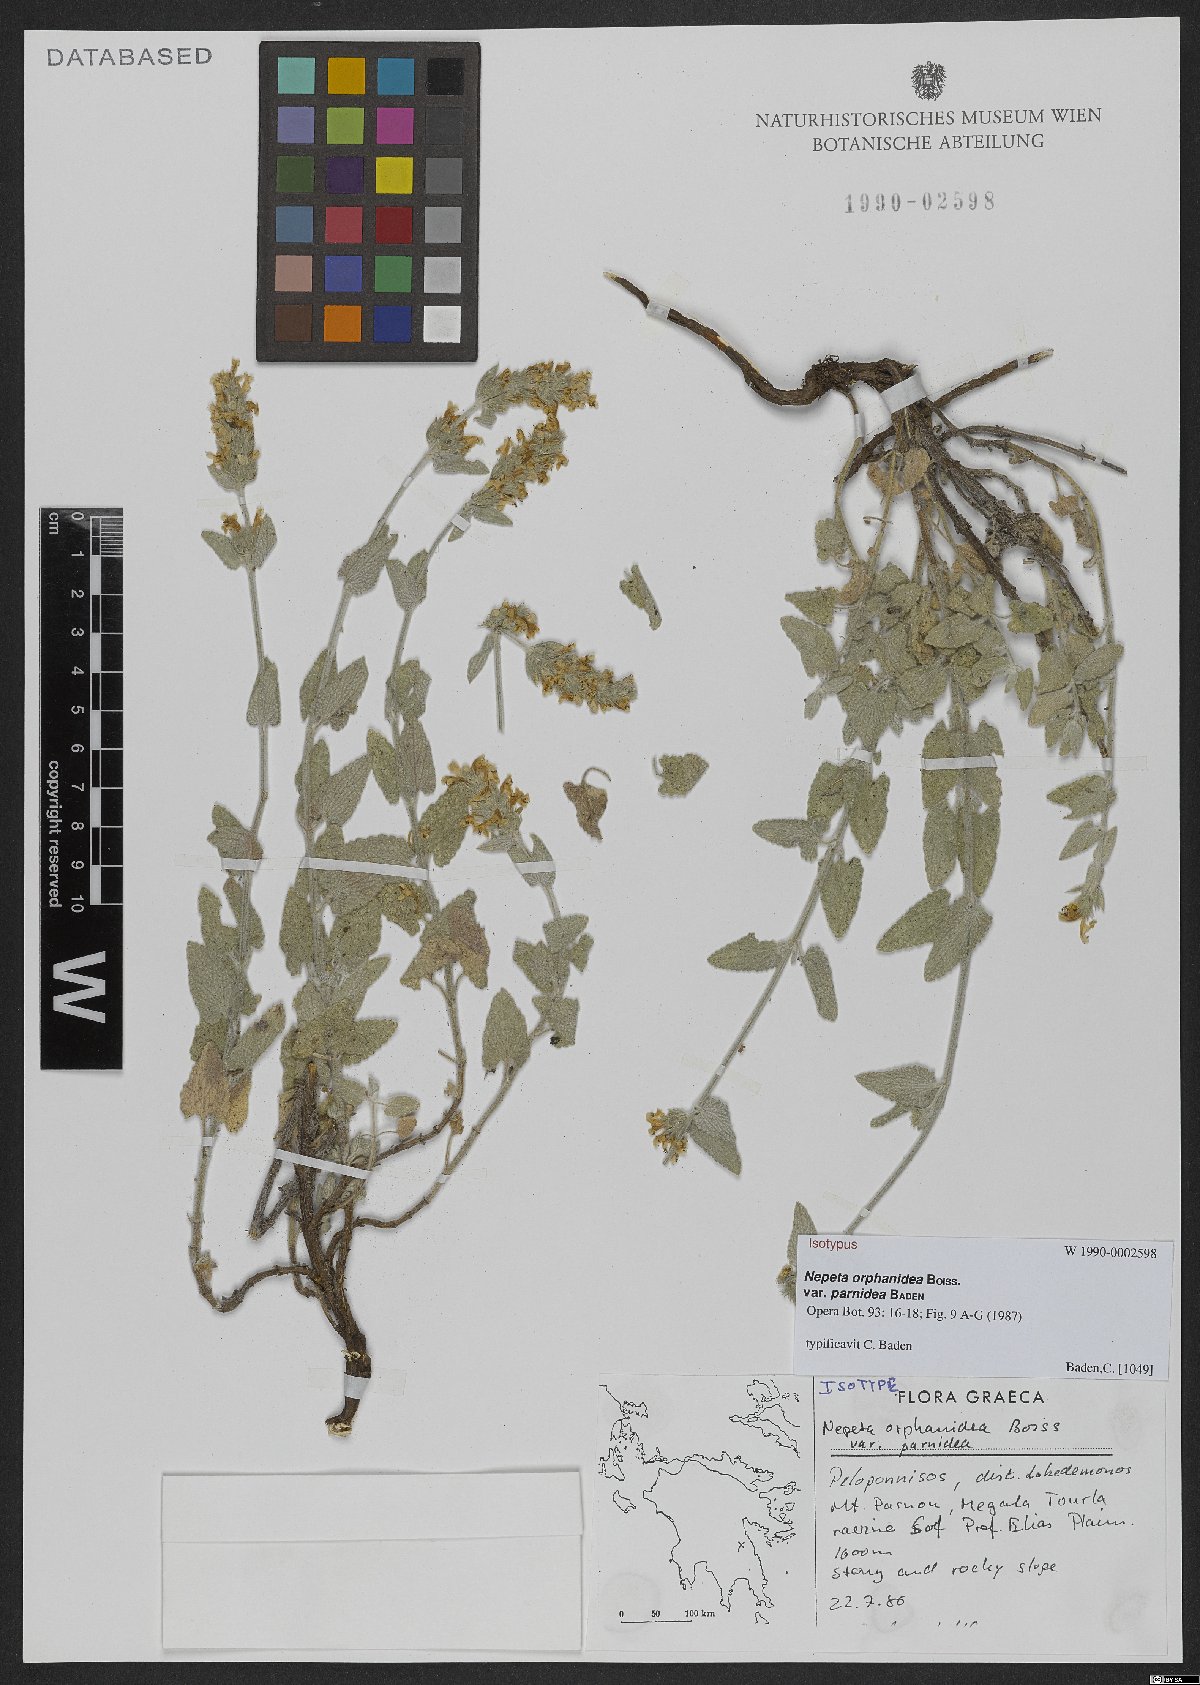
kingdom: Plantae
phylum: Tracheophyta
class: Magnoliopsida
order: Lamiales
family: Lamiaceae
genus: Nepeta
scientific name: Nepeta orphanidea
